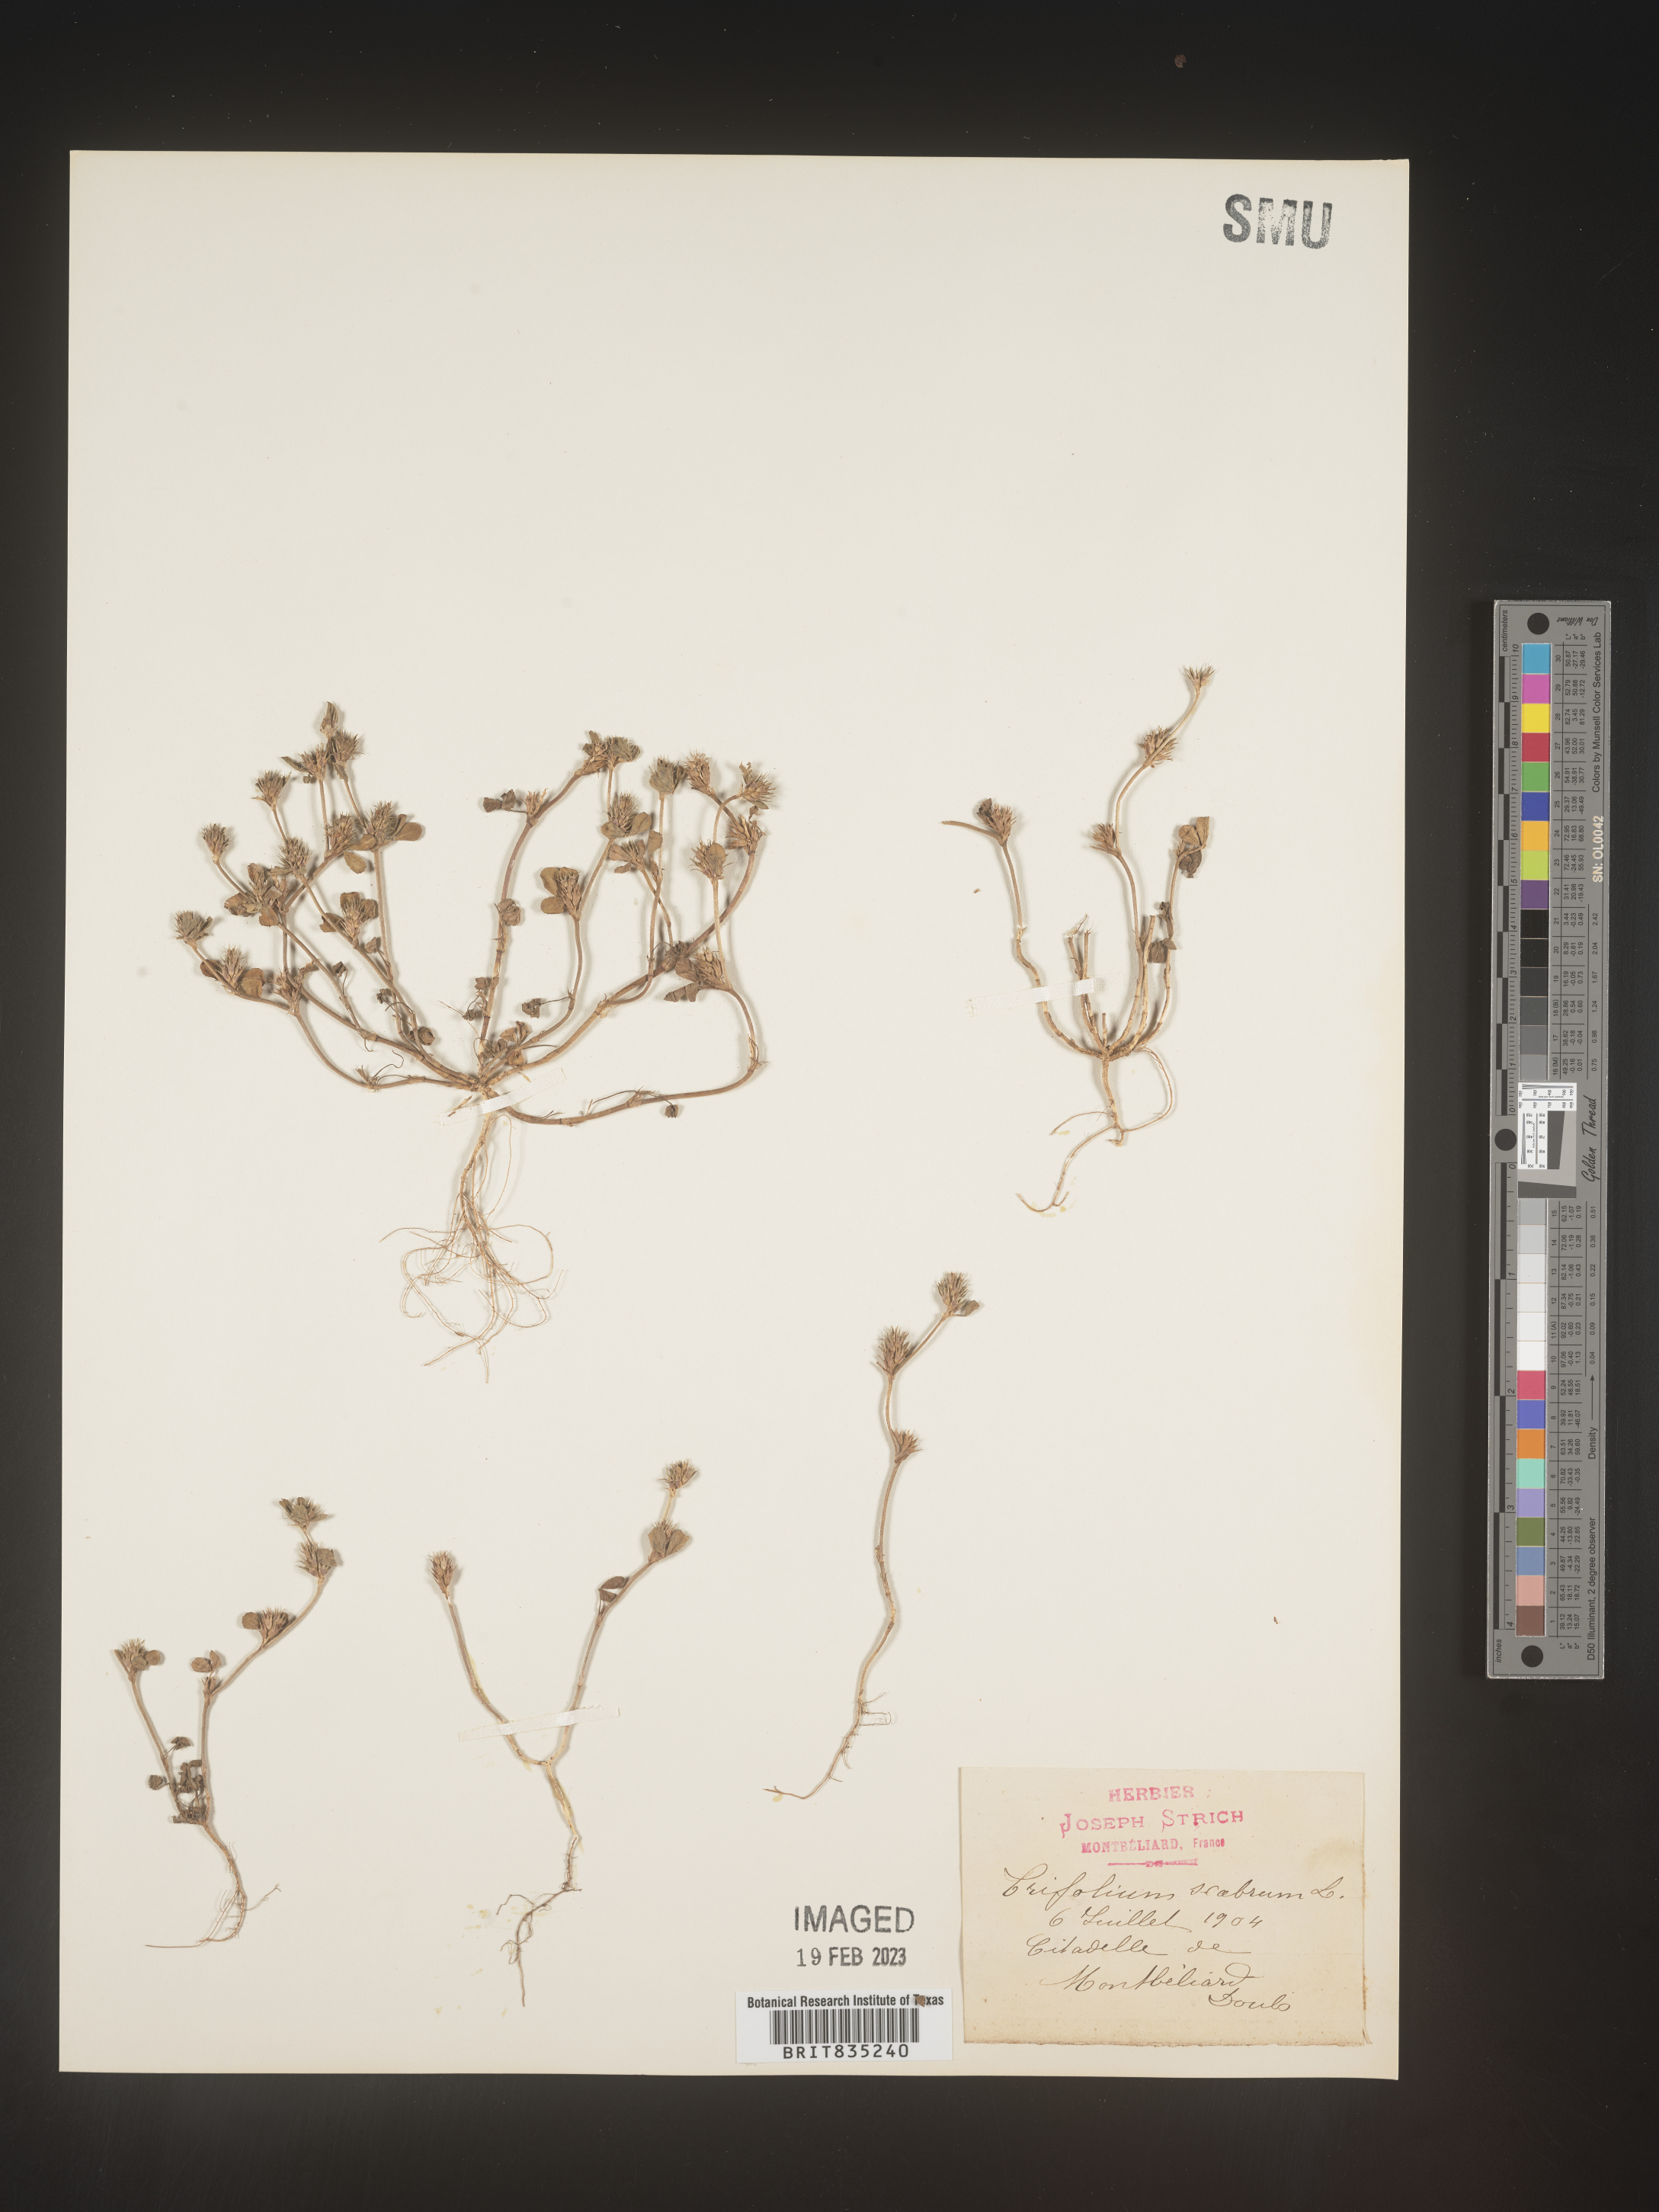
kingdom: Plantae
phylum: Tracheophyta
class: Magnoliopsida
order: Fabales
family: Fabaceae
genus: Trifolium
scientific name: Trifolium
